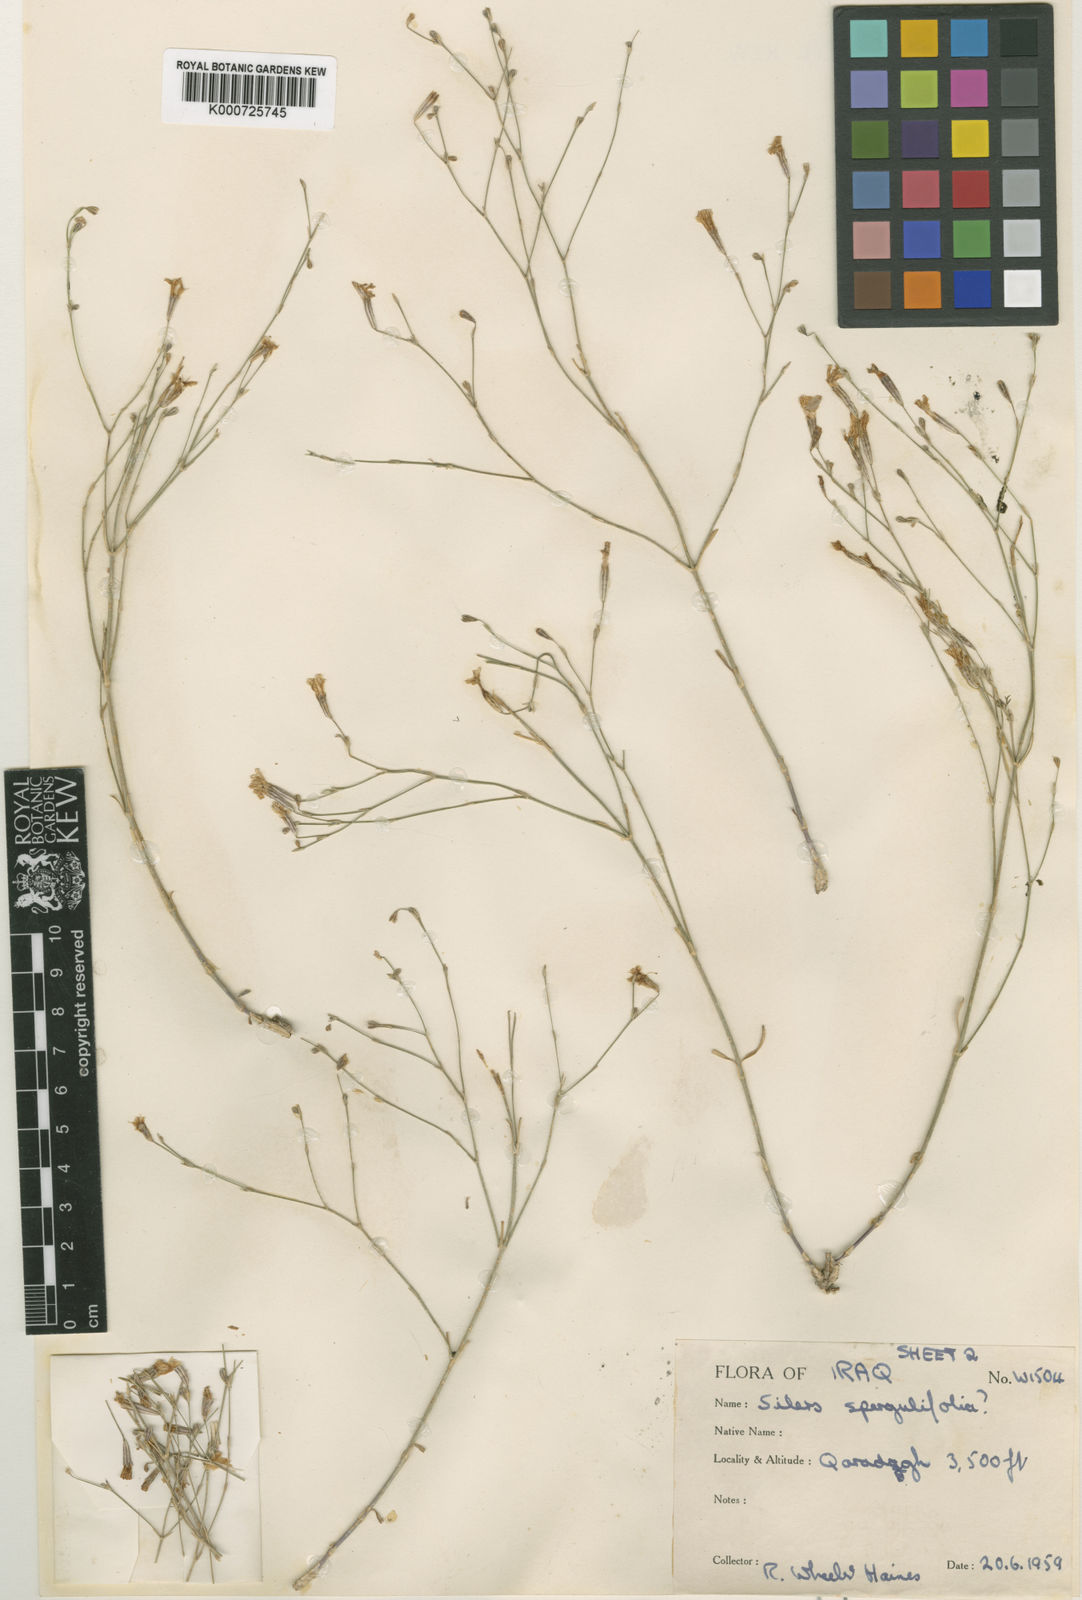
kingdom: Plantae
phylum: Tracheophyta
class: Magnoliopsida
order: Caryophyllales
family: Caryophyllaceae
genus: Gypsophila
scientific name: Gypsophila
